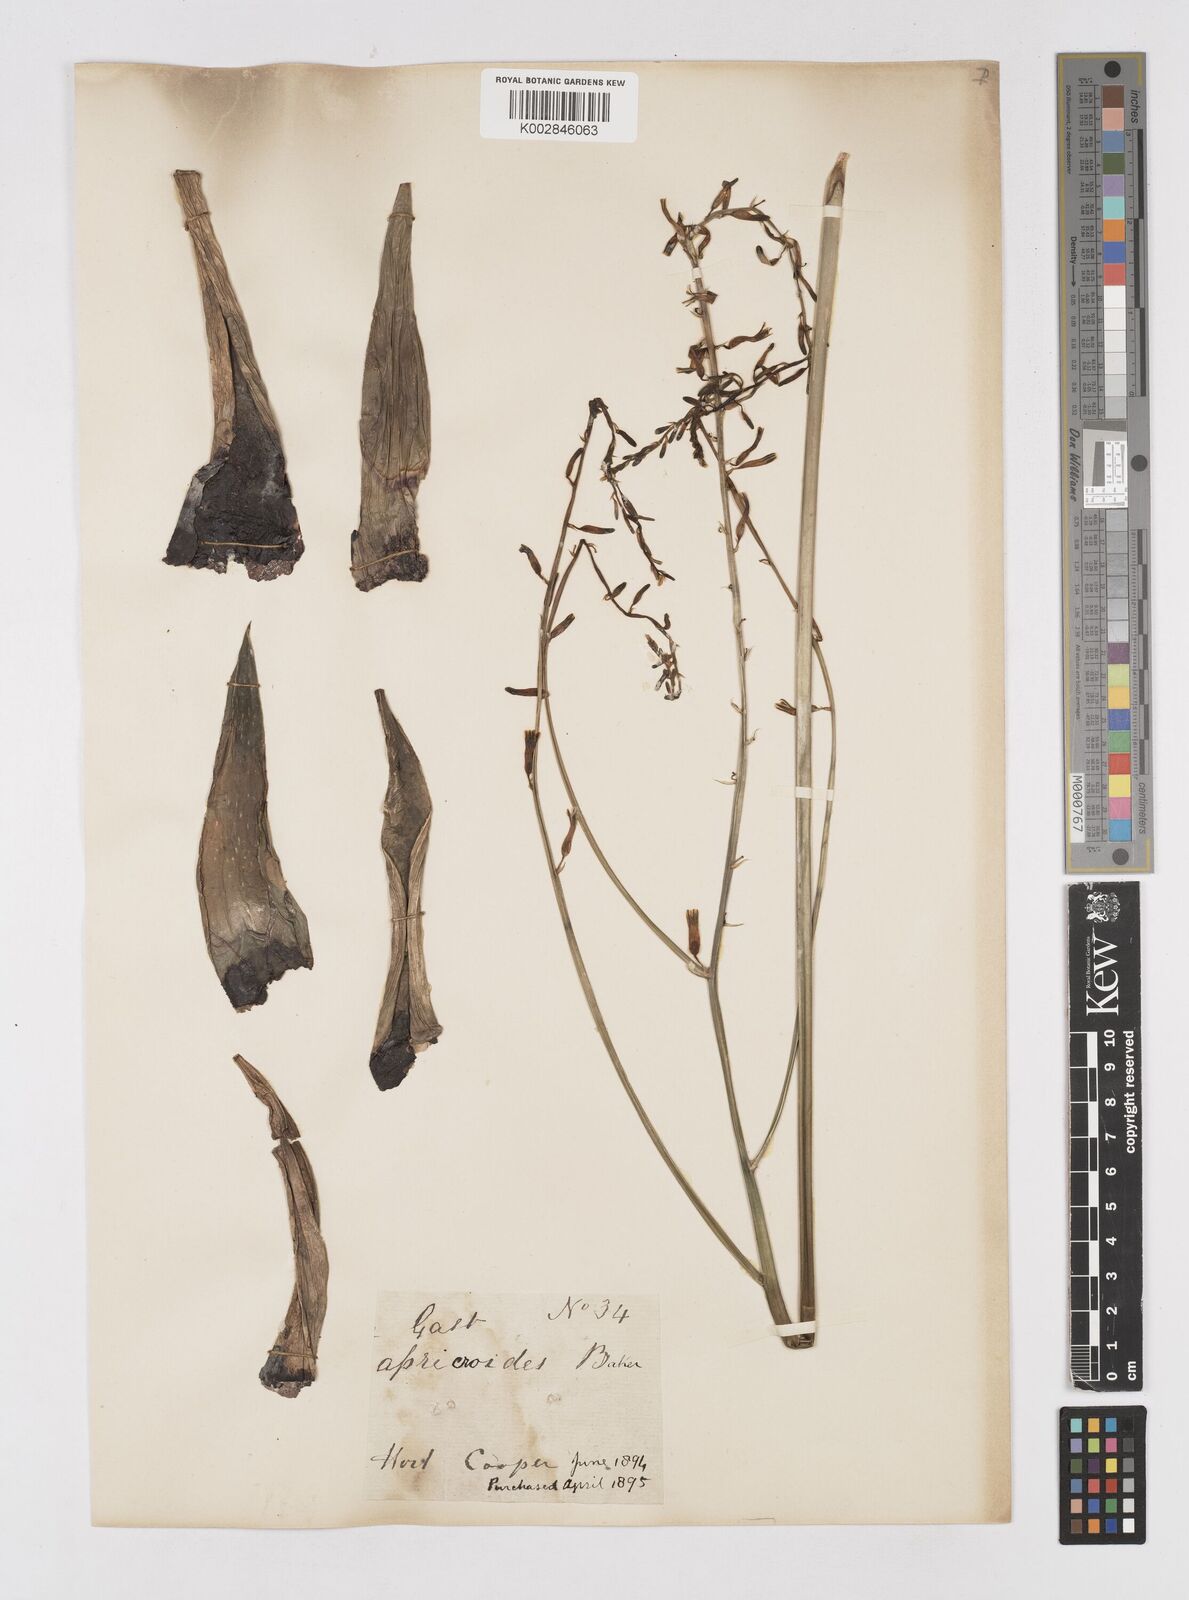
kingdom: Plantae
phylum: Tracheophyta
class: Liliopsida
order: Asparagales
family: Asphodelaceae
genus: Gastroloba
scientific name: Gastroloba apicroides
